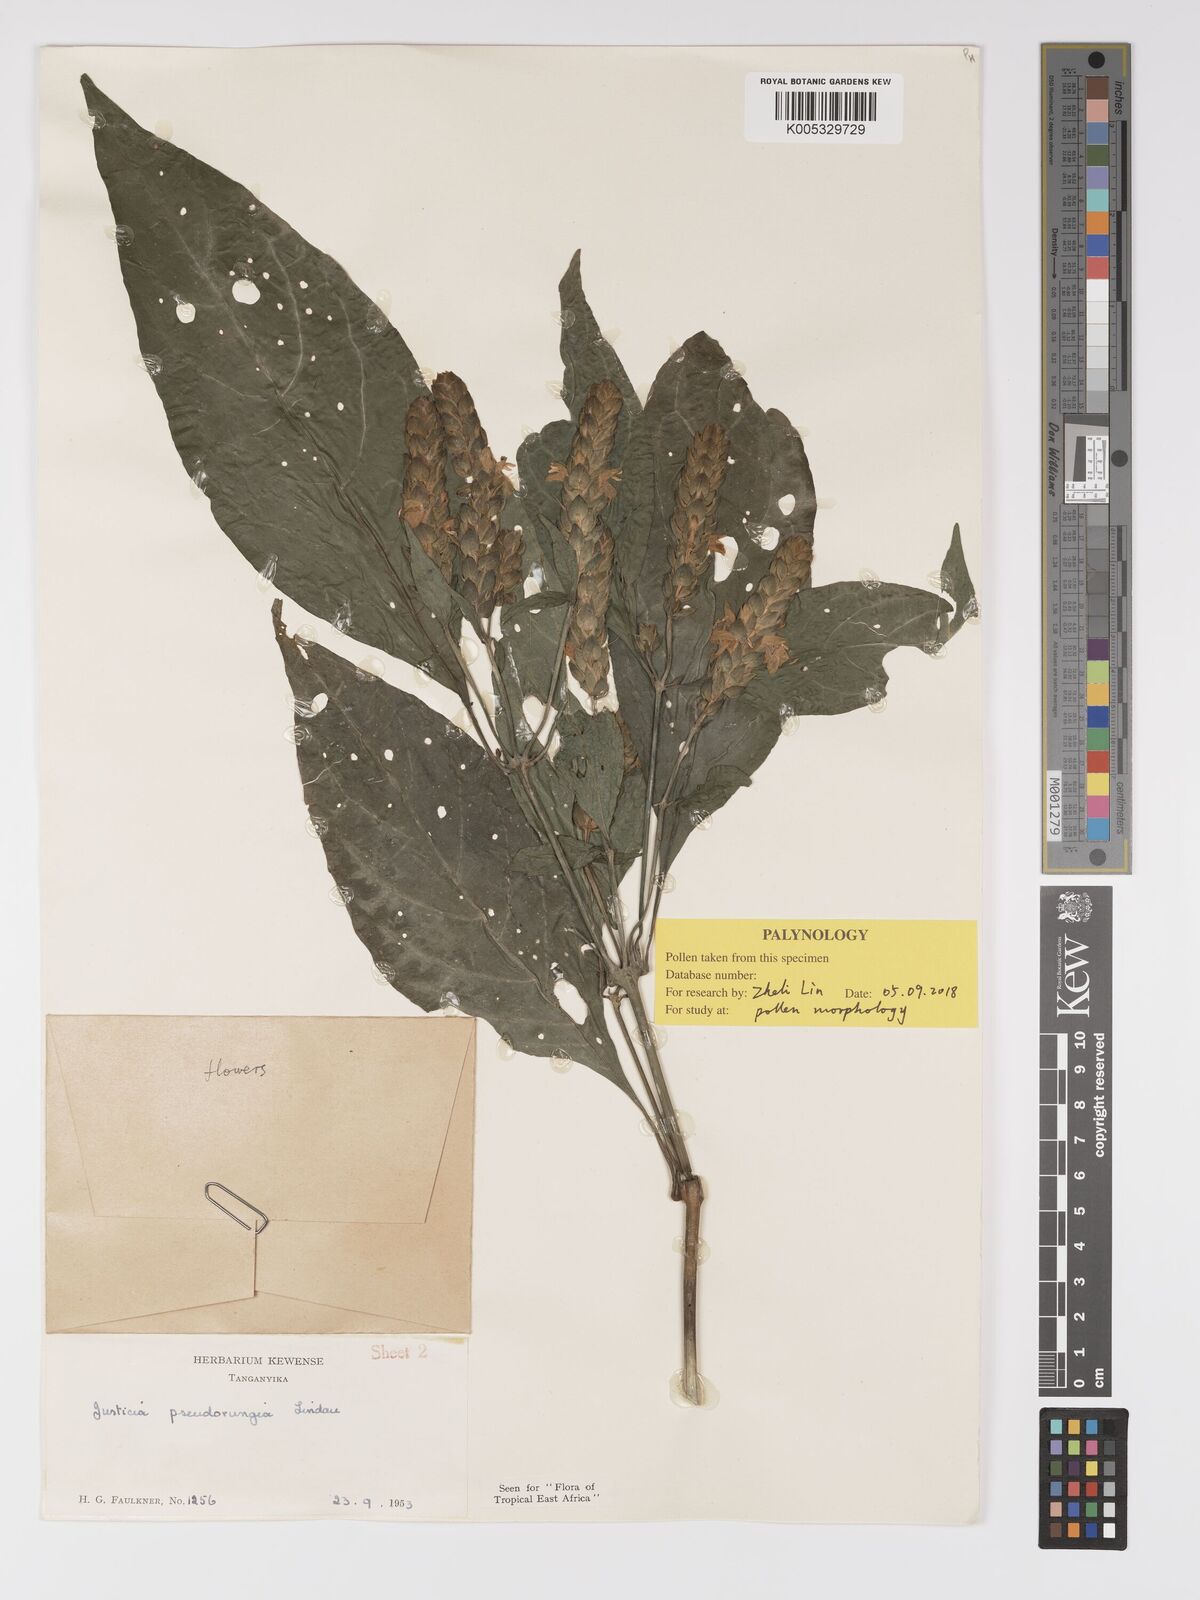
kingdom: Plantae
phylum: Tracheophyta
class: Magnoliopsida
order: Lamiales
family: Acanthaceae
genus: Justicia
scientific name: Justicia pseudorungia
